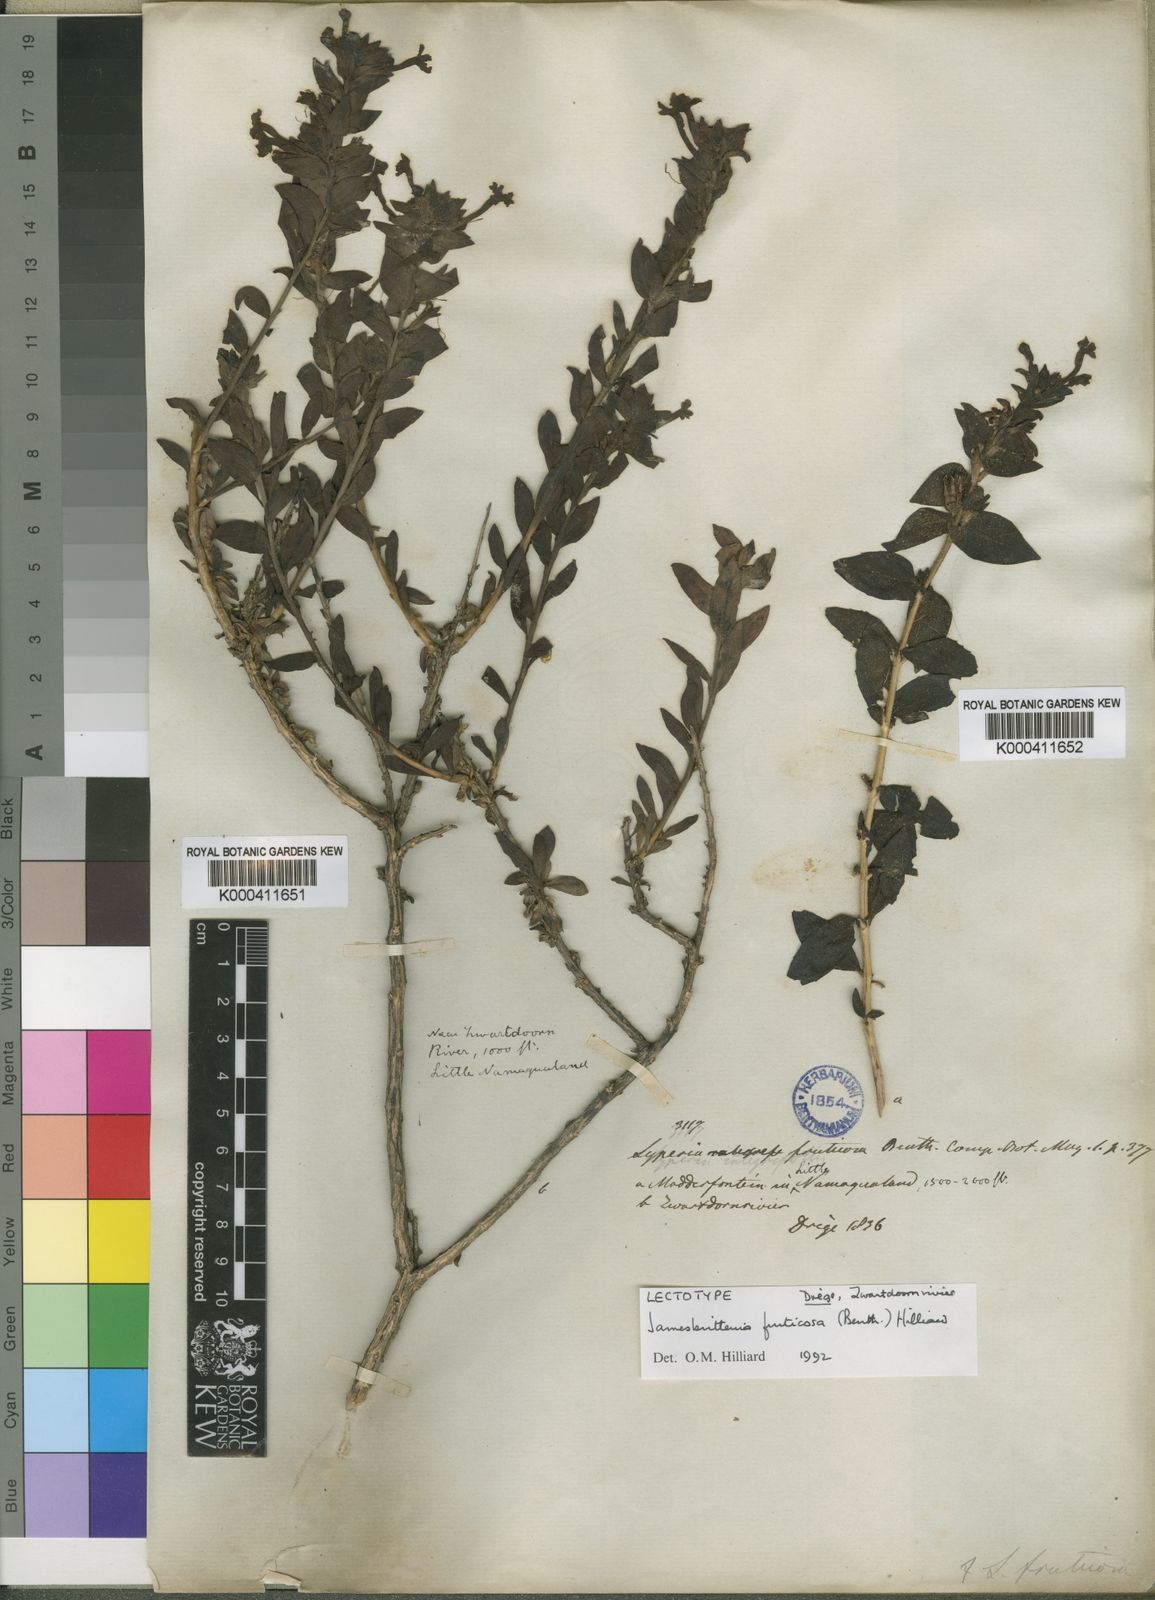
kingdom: Plantae
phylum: Tracheophyta
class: Magnoliopsida
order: Lamiales
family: Scrophulariaceae
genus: Jamesbrittenia
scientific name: Jamesbrittenia fruticosa
